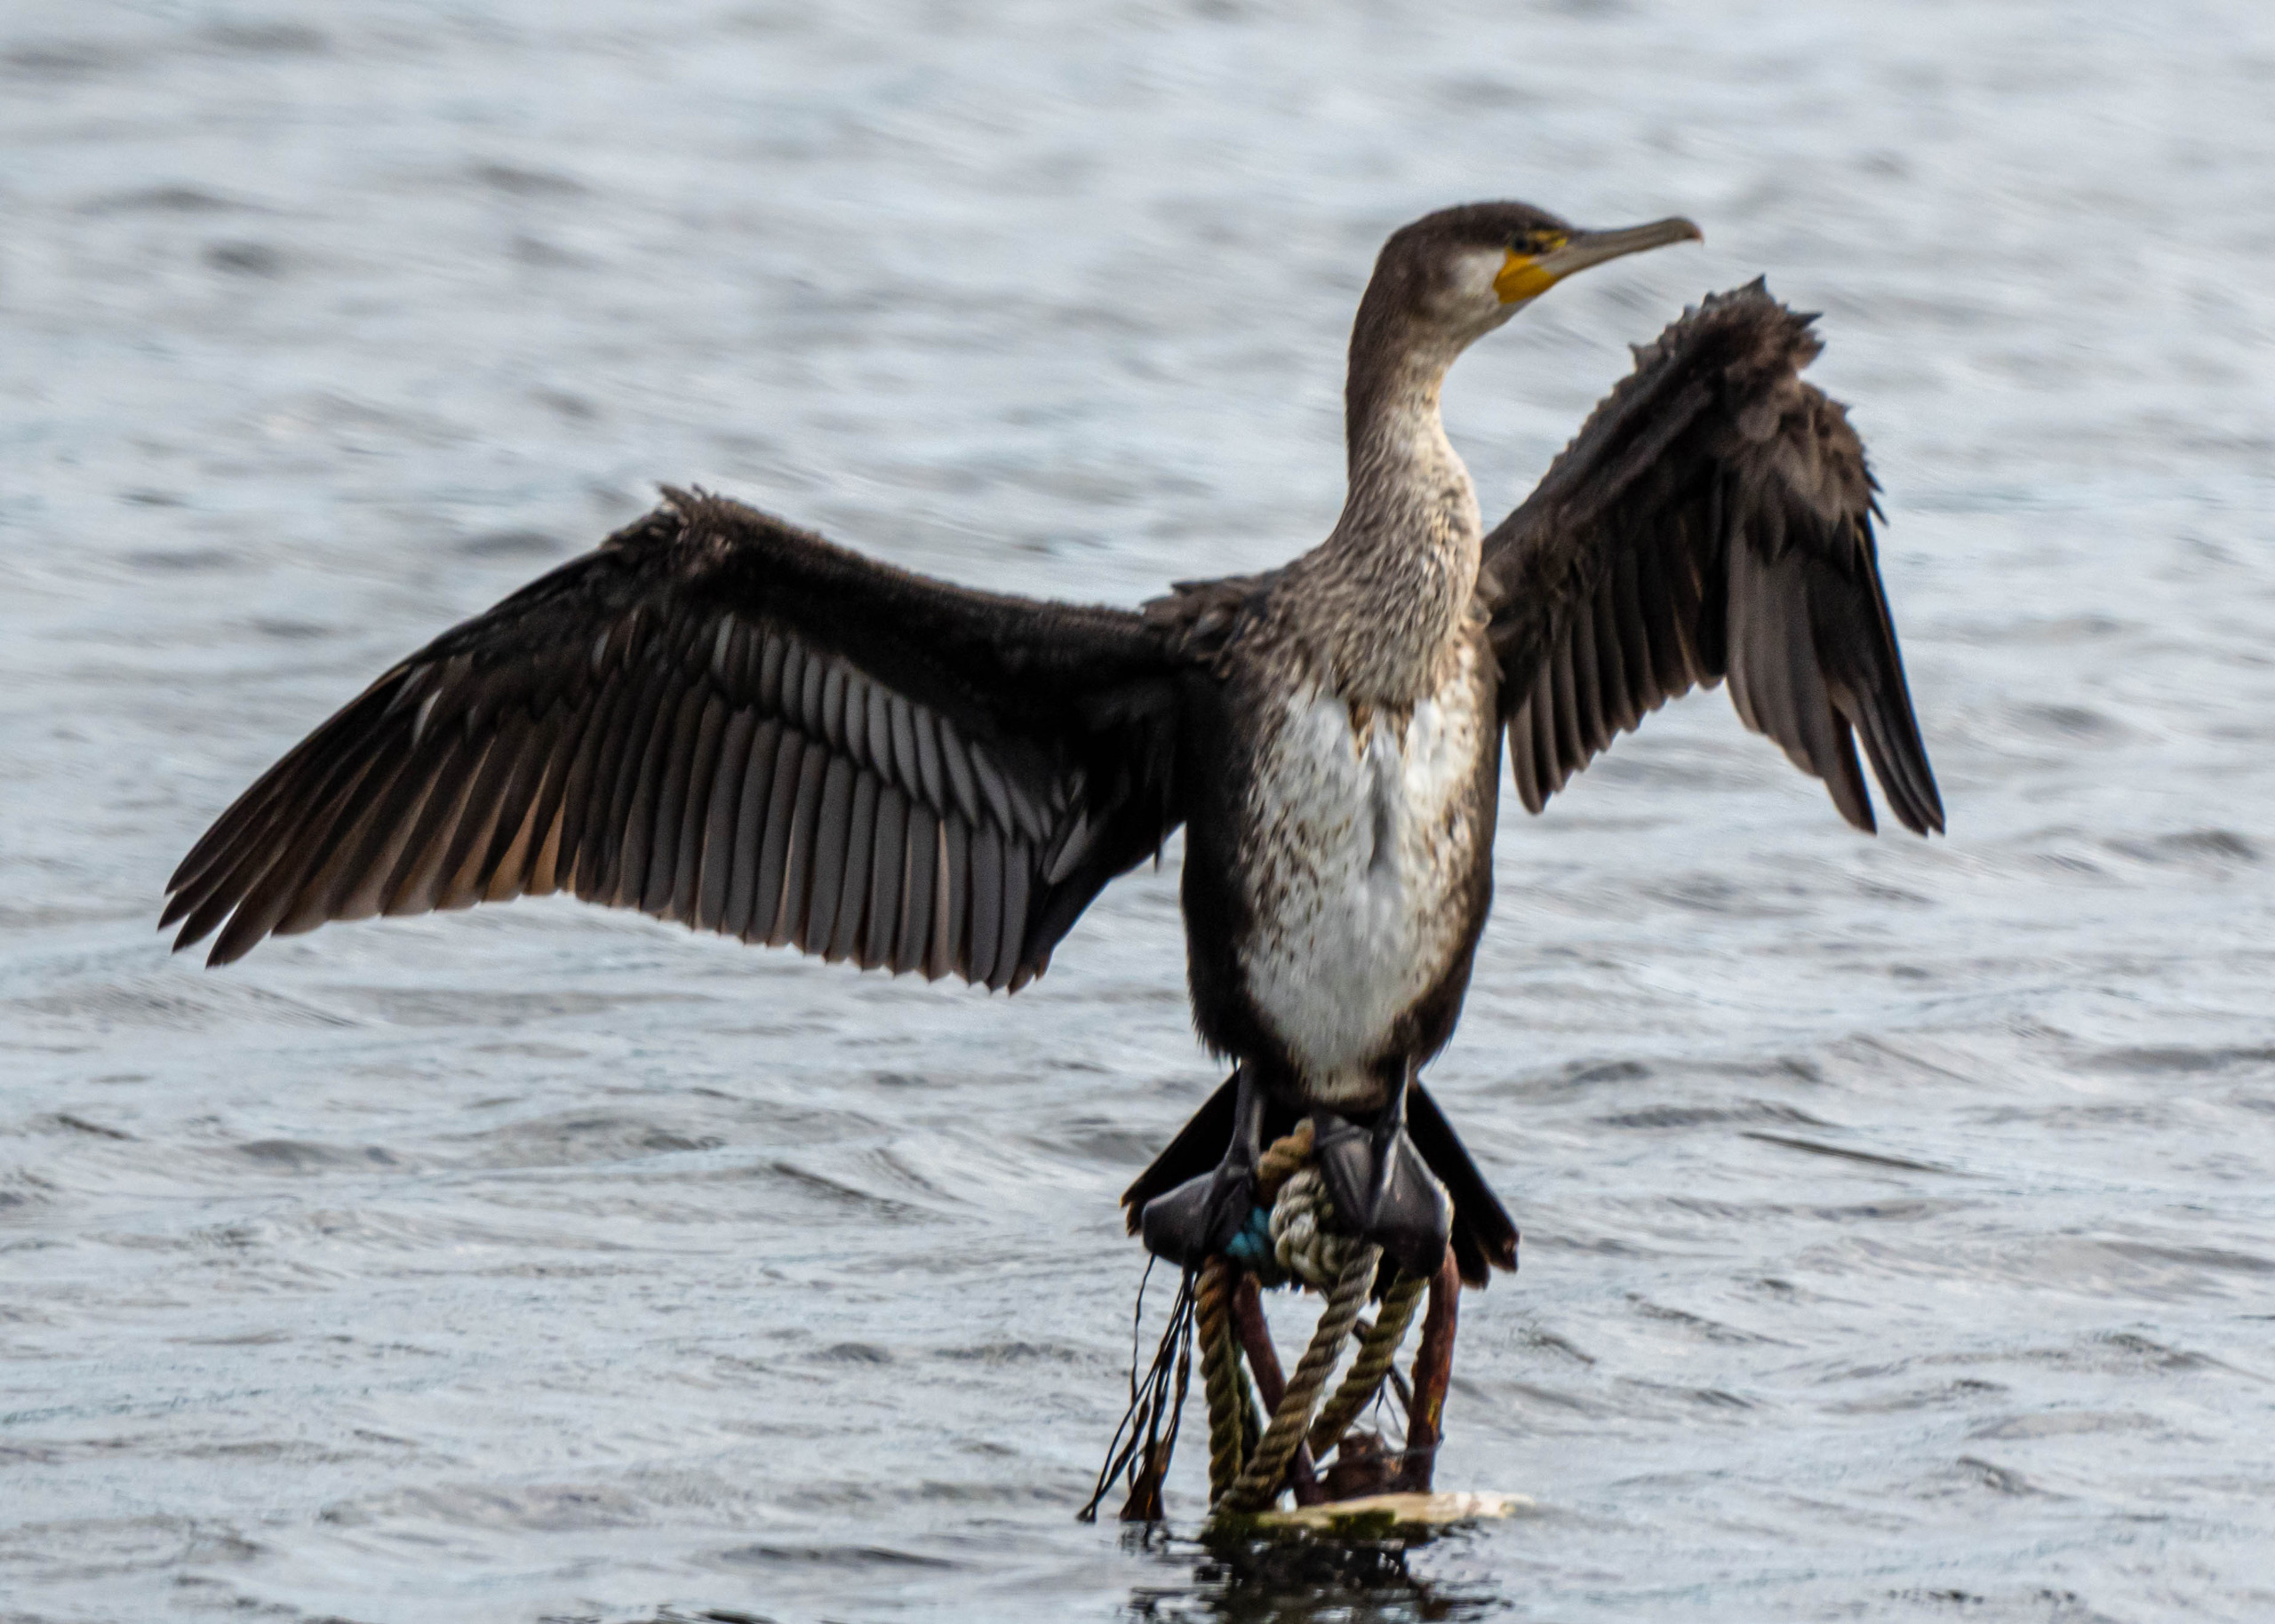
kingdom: Animalia
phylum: Chordata
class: Aves
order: Suliformes
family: Phalacrocoracidae
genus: Phalacrocorax
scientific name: Phalacrocorax carbo
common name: Skarv
